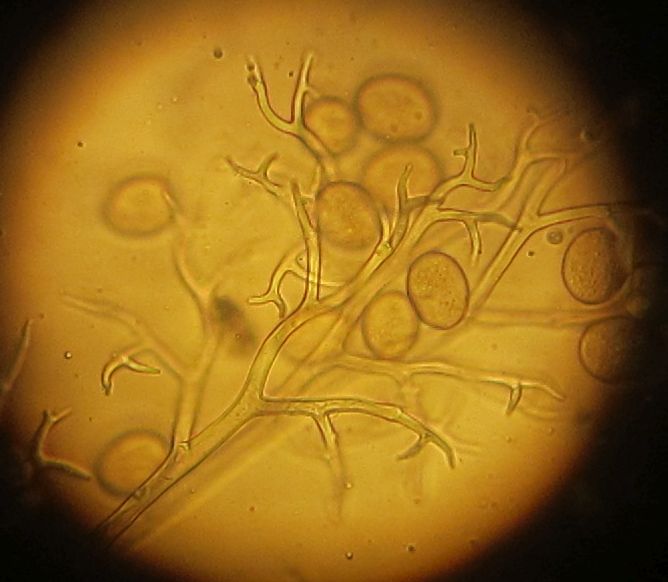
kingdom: Chromista
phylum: Oomycota
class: Peronosporea
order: Peronosporales
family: Peronosporaceae
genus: Peronospora
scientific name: Peronospora bulbocapni
